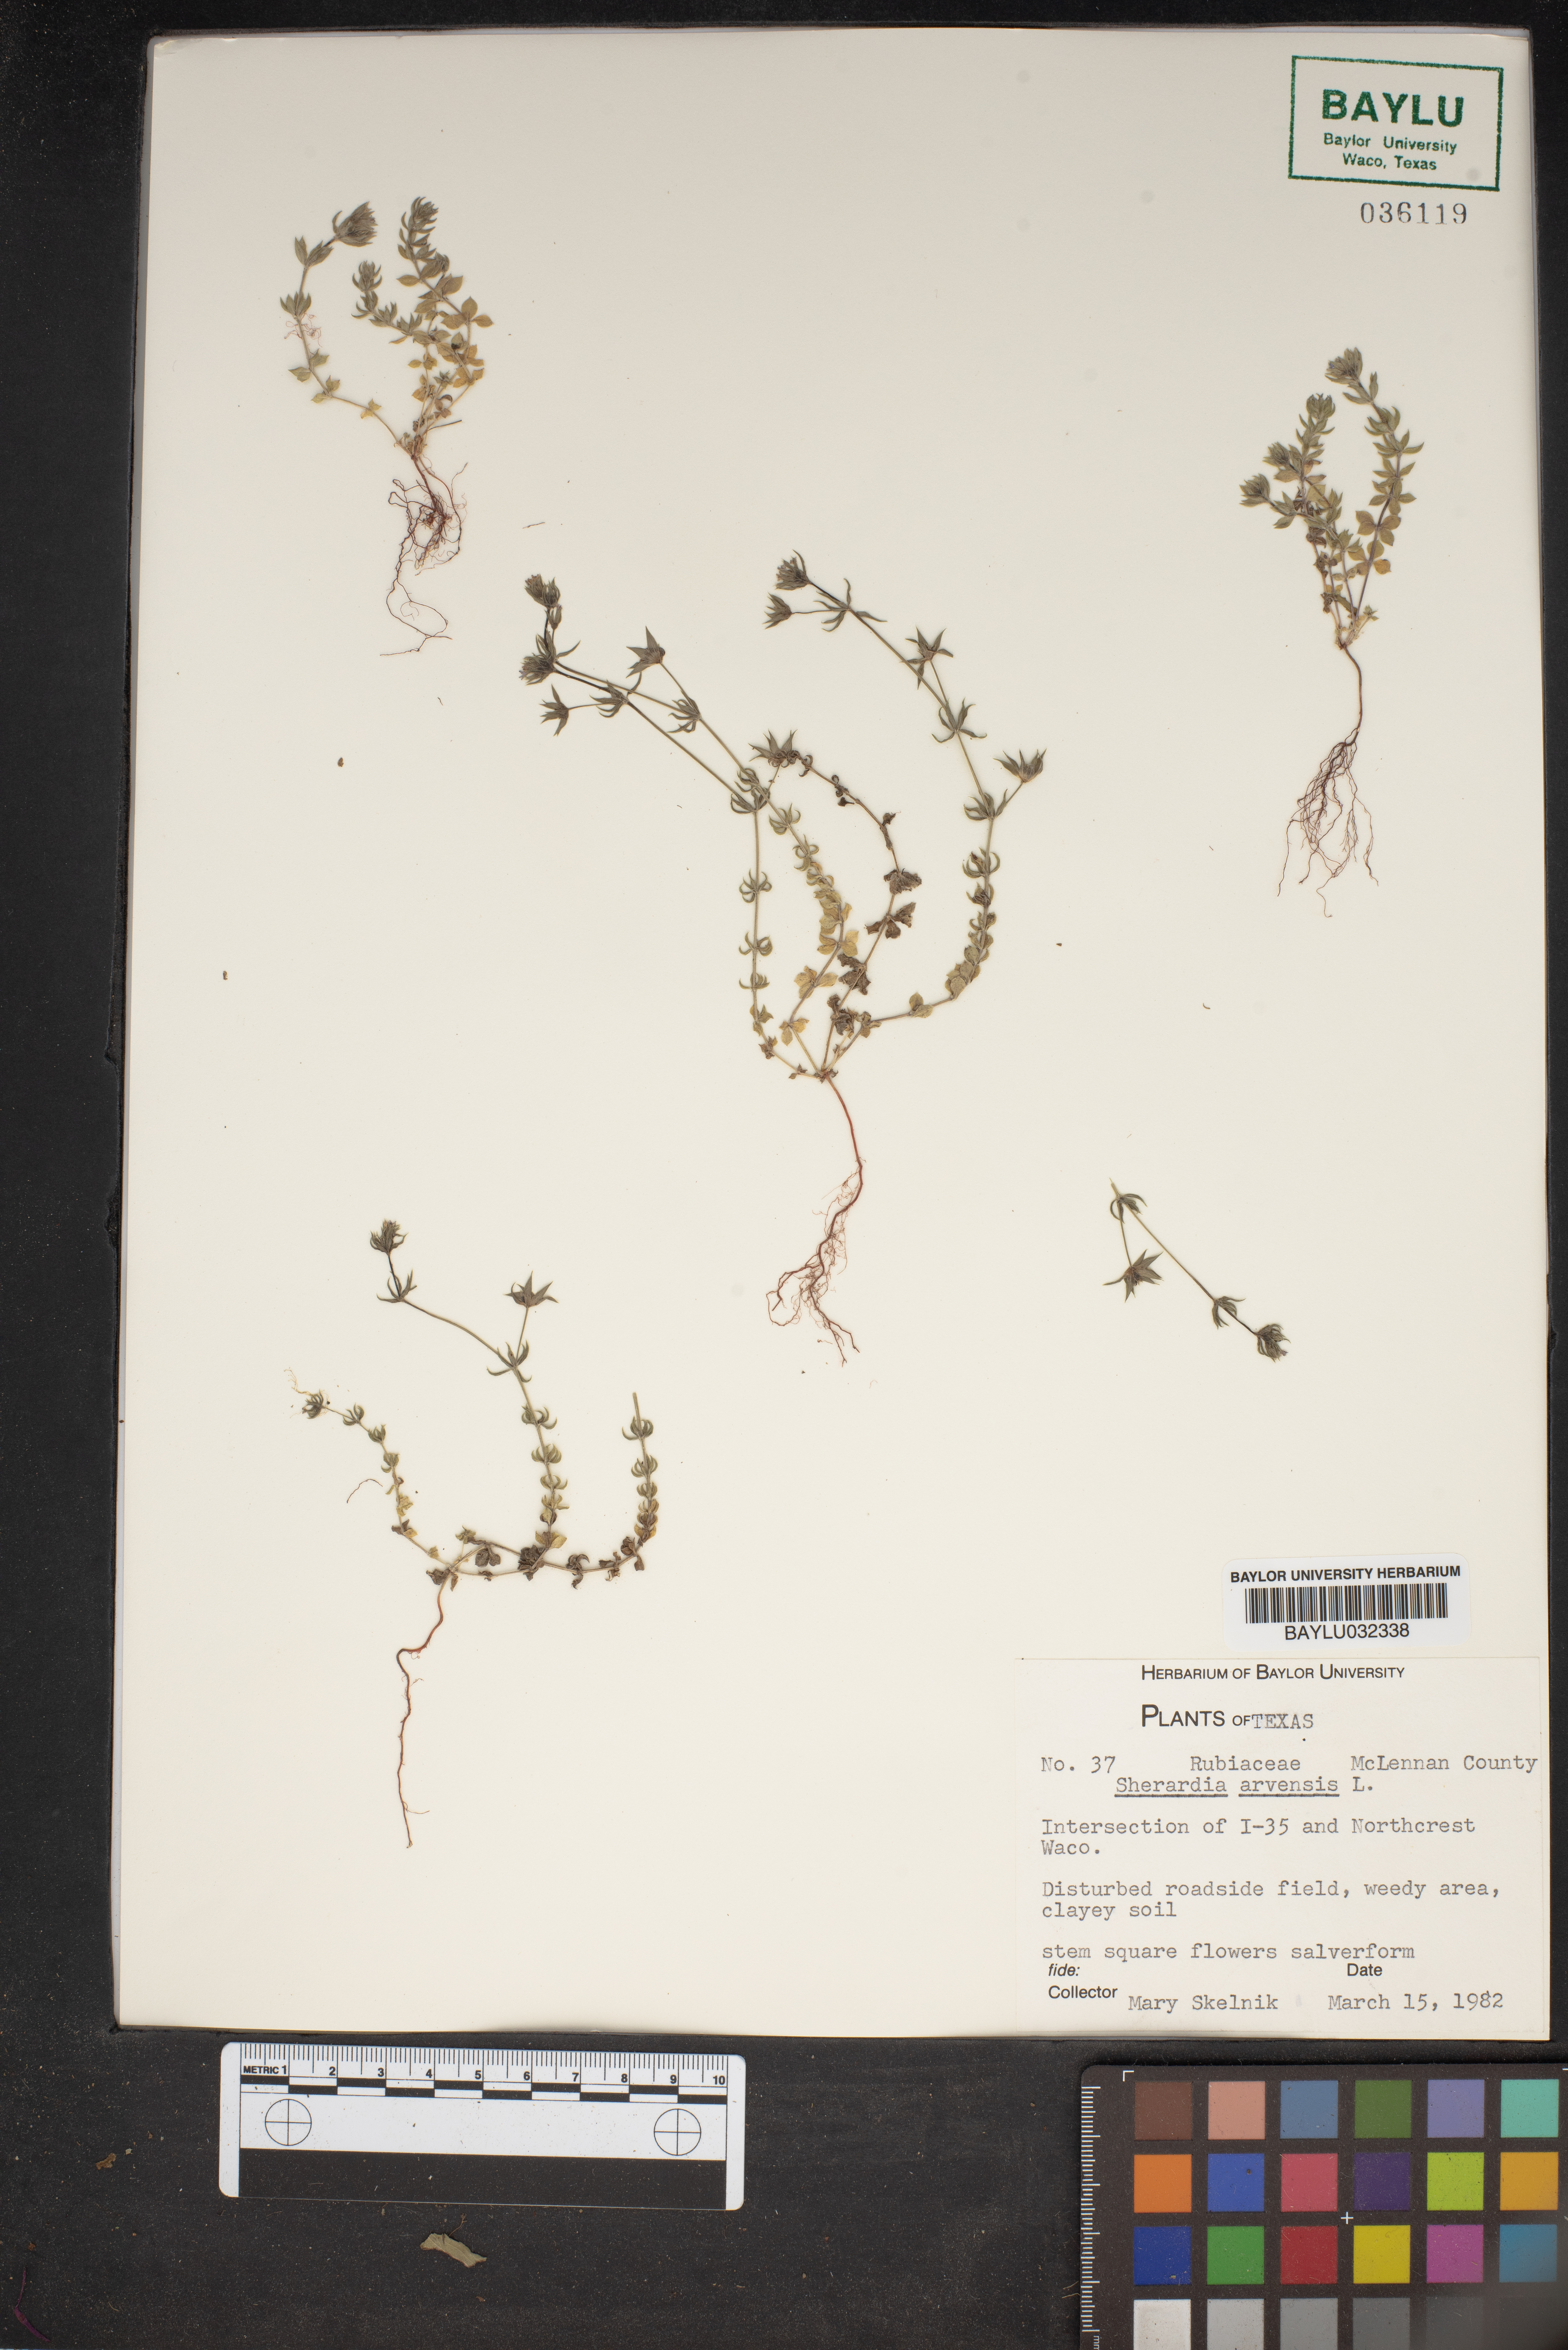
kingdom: Plantae
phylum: Tracheophyta
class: Magnoliopsida
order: Gentianales
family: Rubiaceae
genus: Sherardia
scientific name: Sherardia arvensis
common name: Field madder
